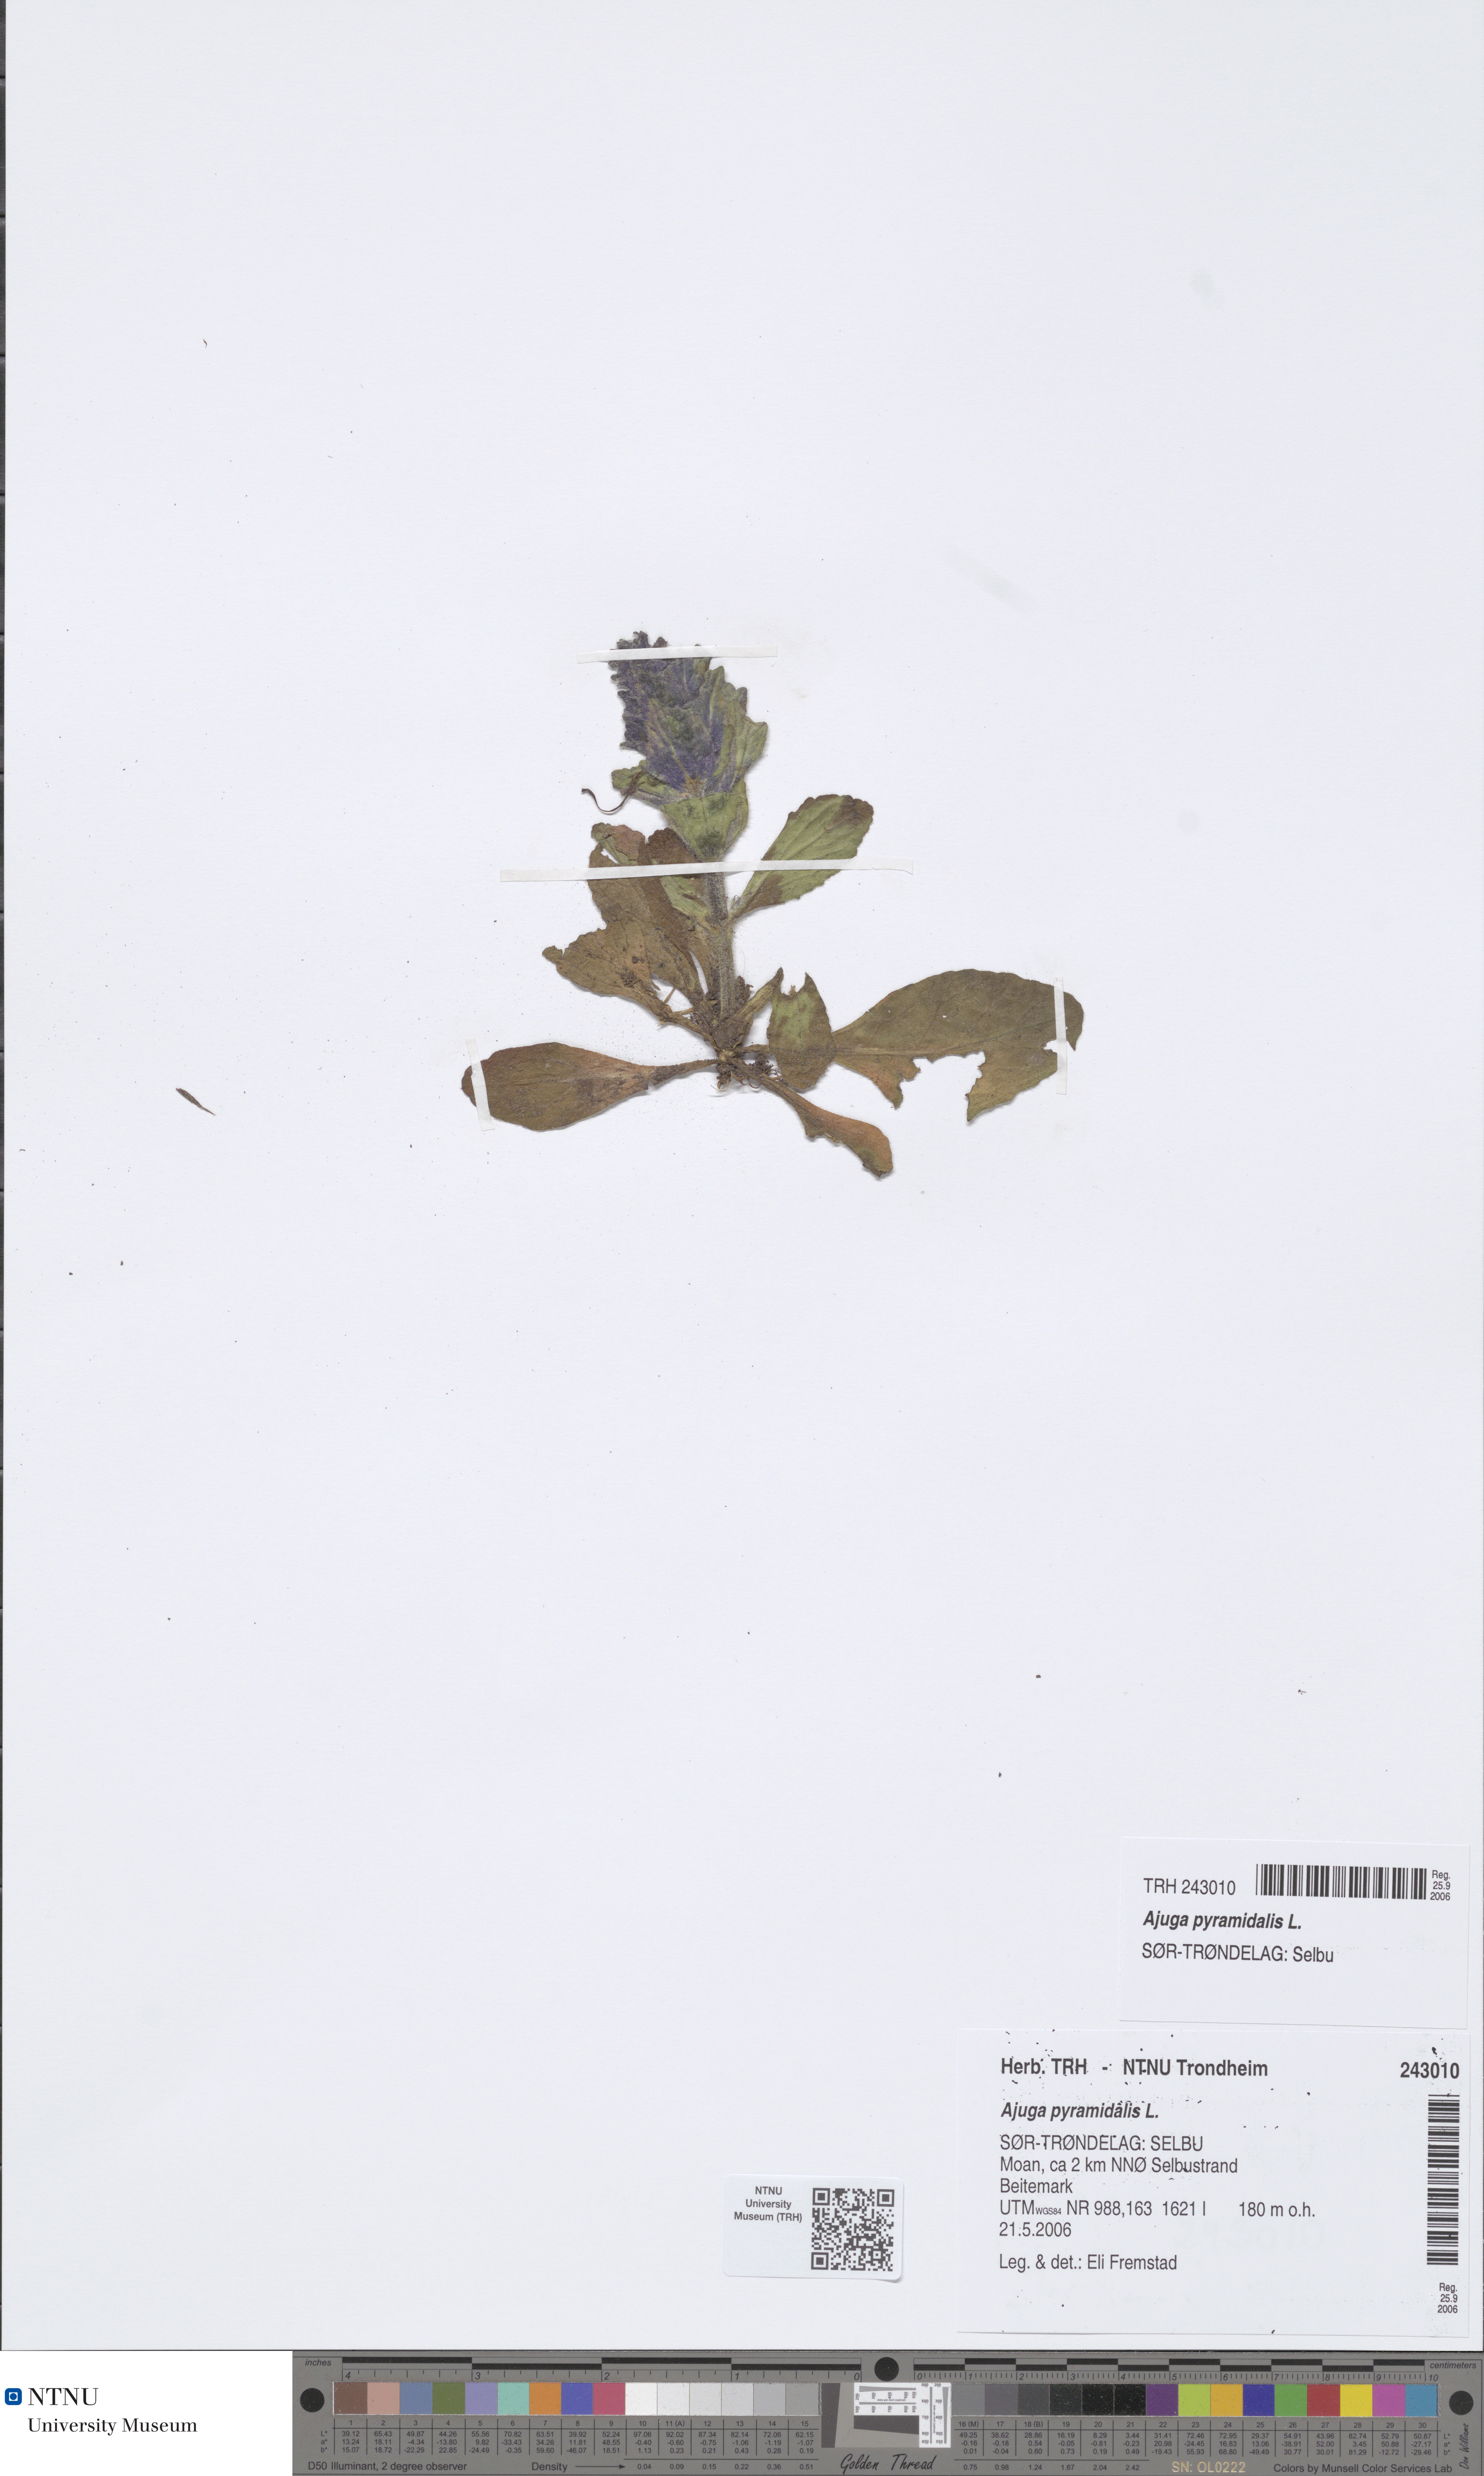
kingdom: Plantae
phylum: Tracheophyta
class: Magnoliopsida
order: Lamiales
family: Lamiaceae
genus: Ajuga
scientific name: Ajuga pyramidalis
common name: Pyramid bugle
